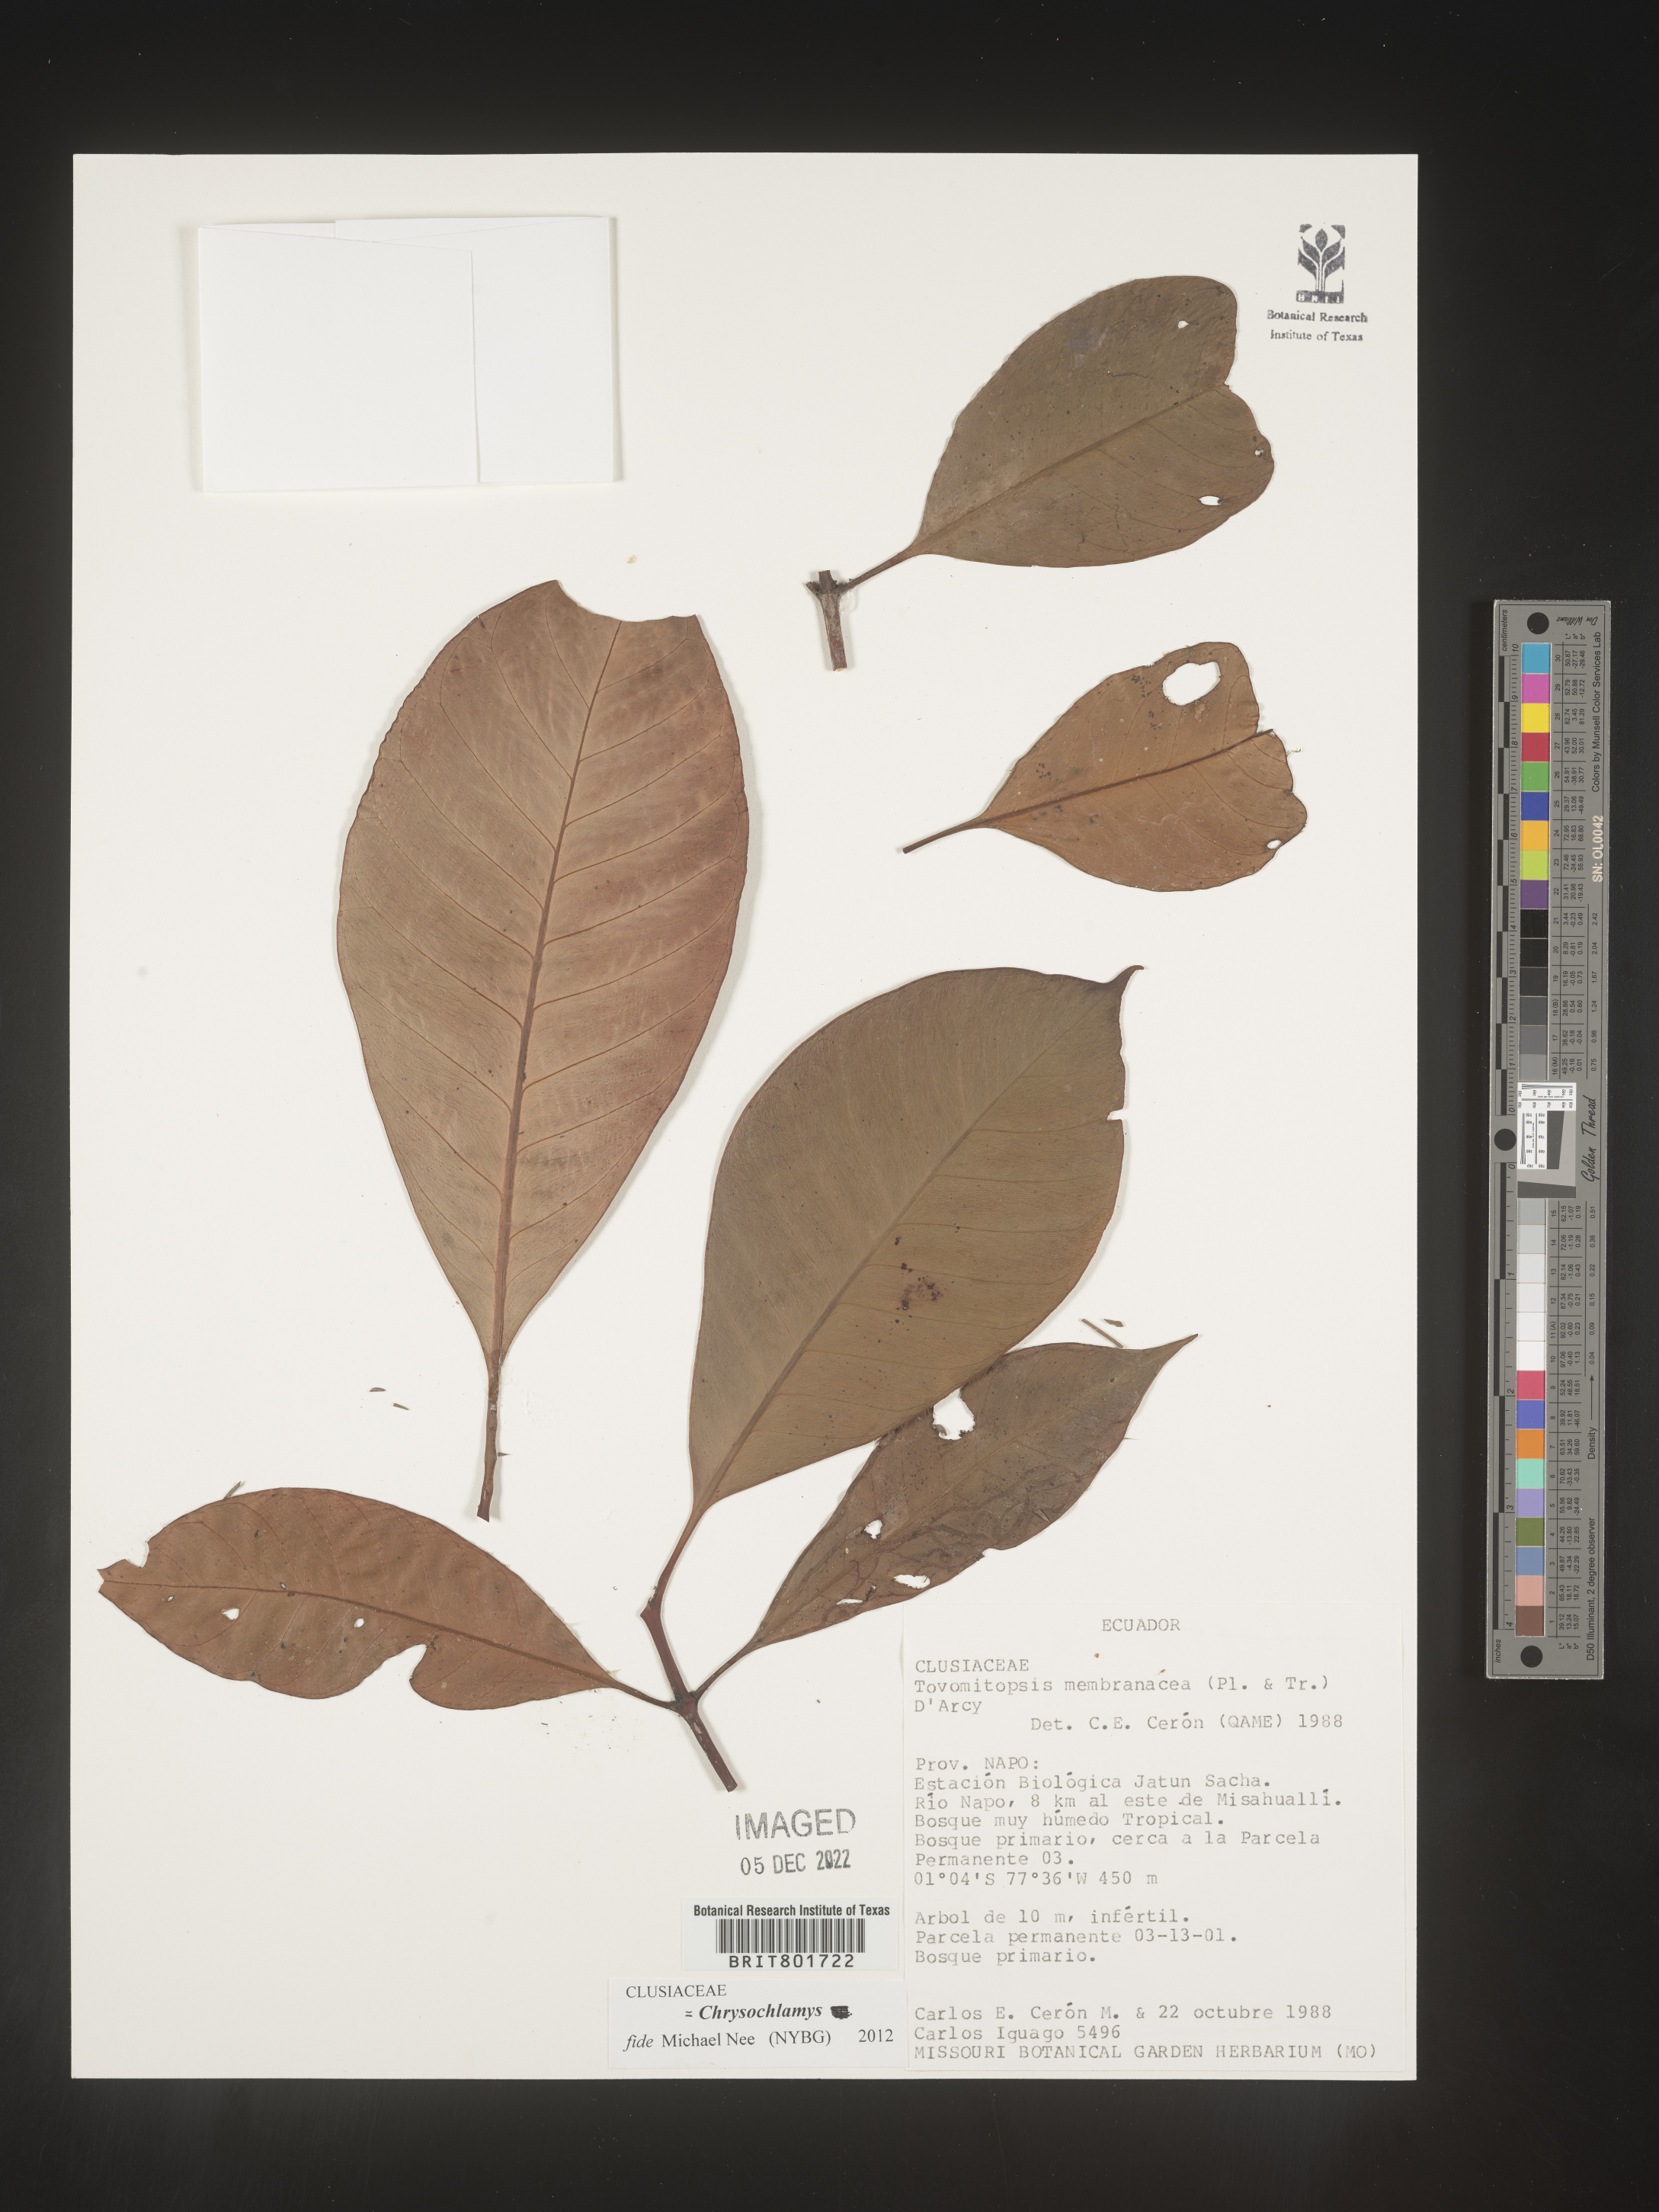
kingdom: Plantae
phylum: Tracheophyta
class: Magnoliopsida
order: Malpighiales
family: Clusiaceae
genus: Chrysochlamys
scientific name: Chrysochlamys membranacea
